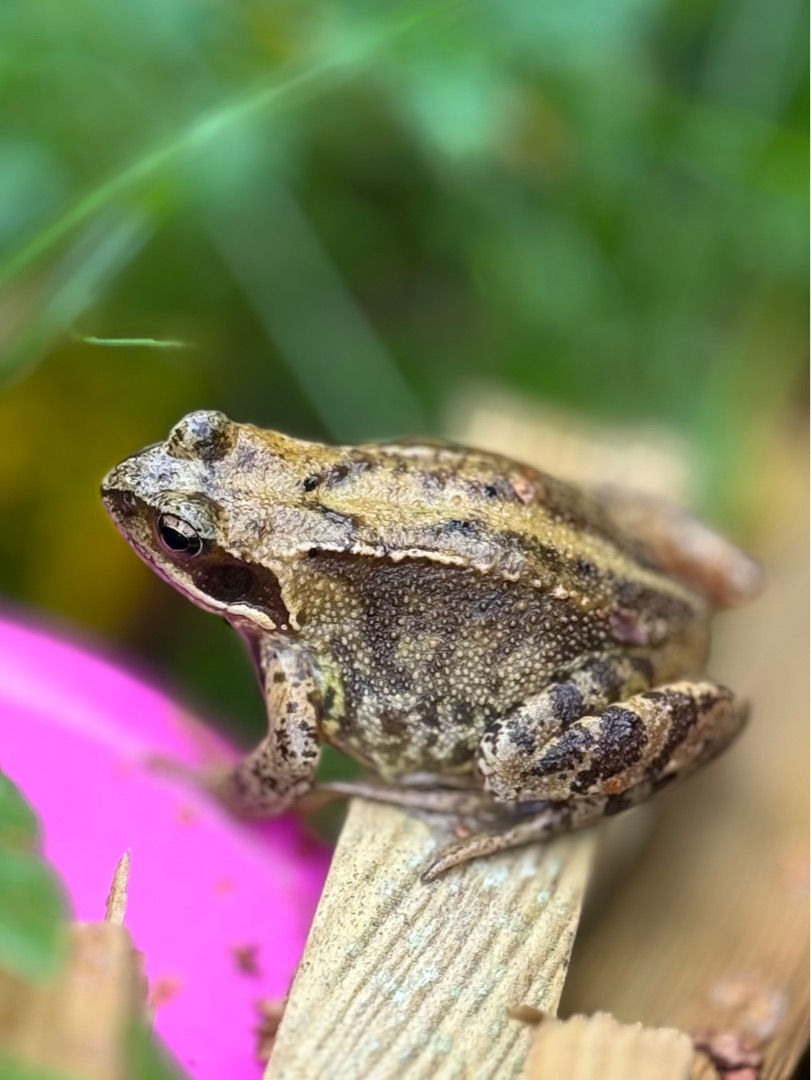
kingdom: Animalia
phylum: Chordata
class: Amphibia
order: Anura
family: Ranidae
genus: Rana
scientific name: Rana temporaria
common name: Butsnudet frø
